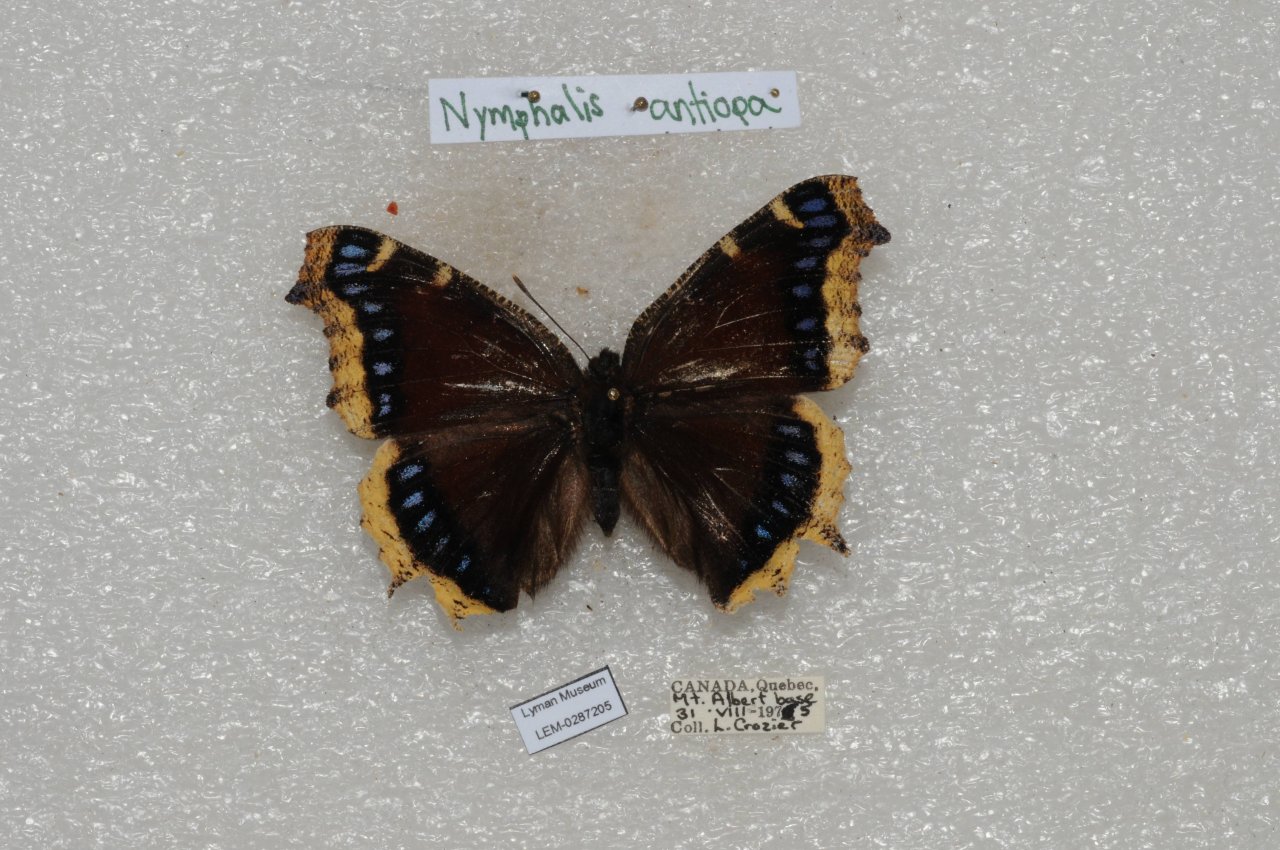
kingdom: Animalia
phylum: Arthropoda
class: Insecta
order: Lepidoptera
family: Nymphalidae
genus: Nymphalis
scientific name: Nymphalis antiopa
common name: Mourning Cloak
